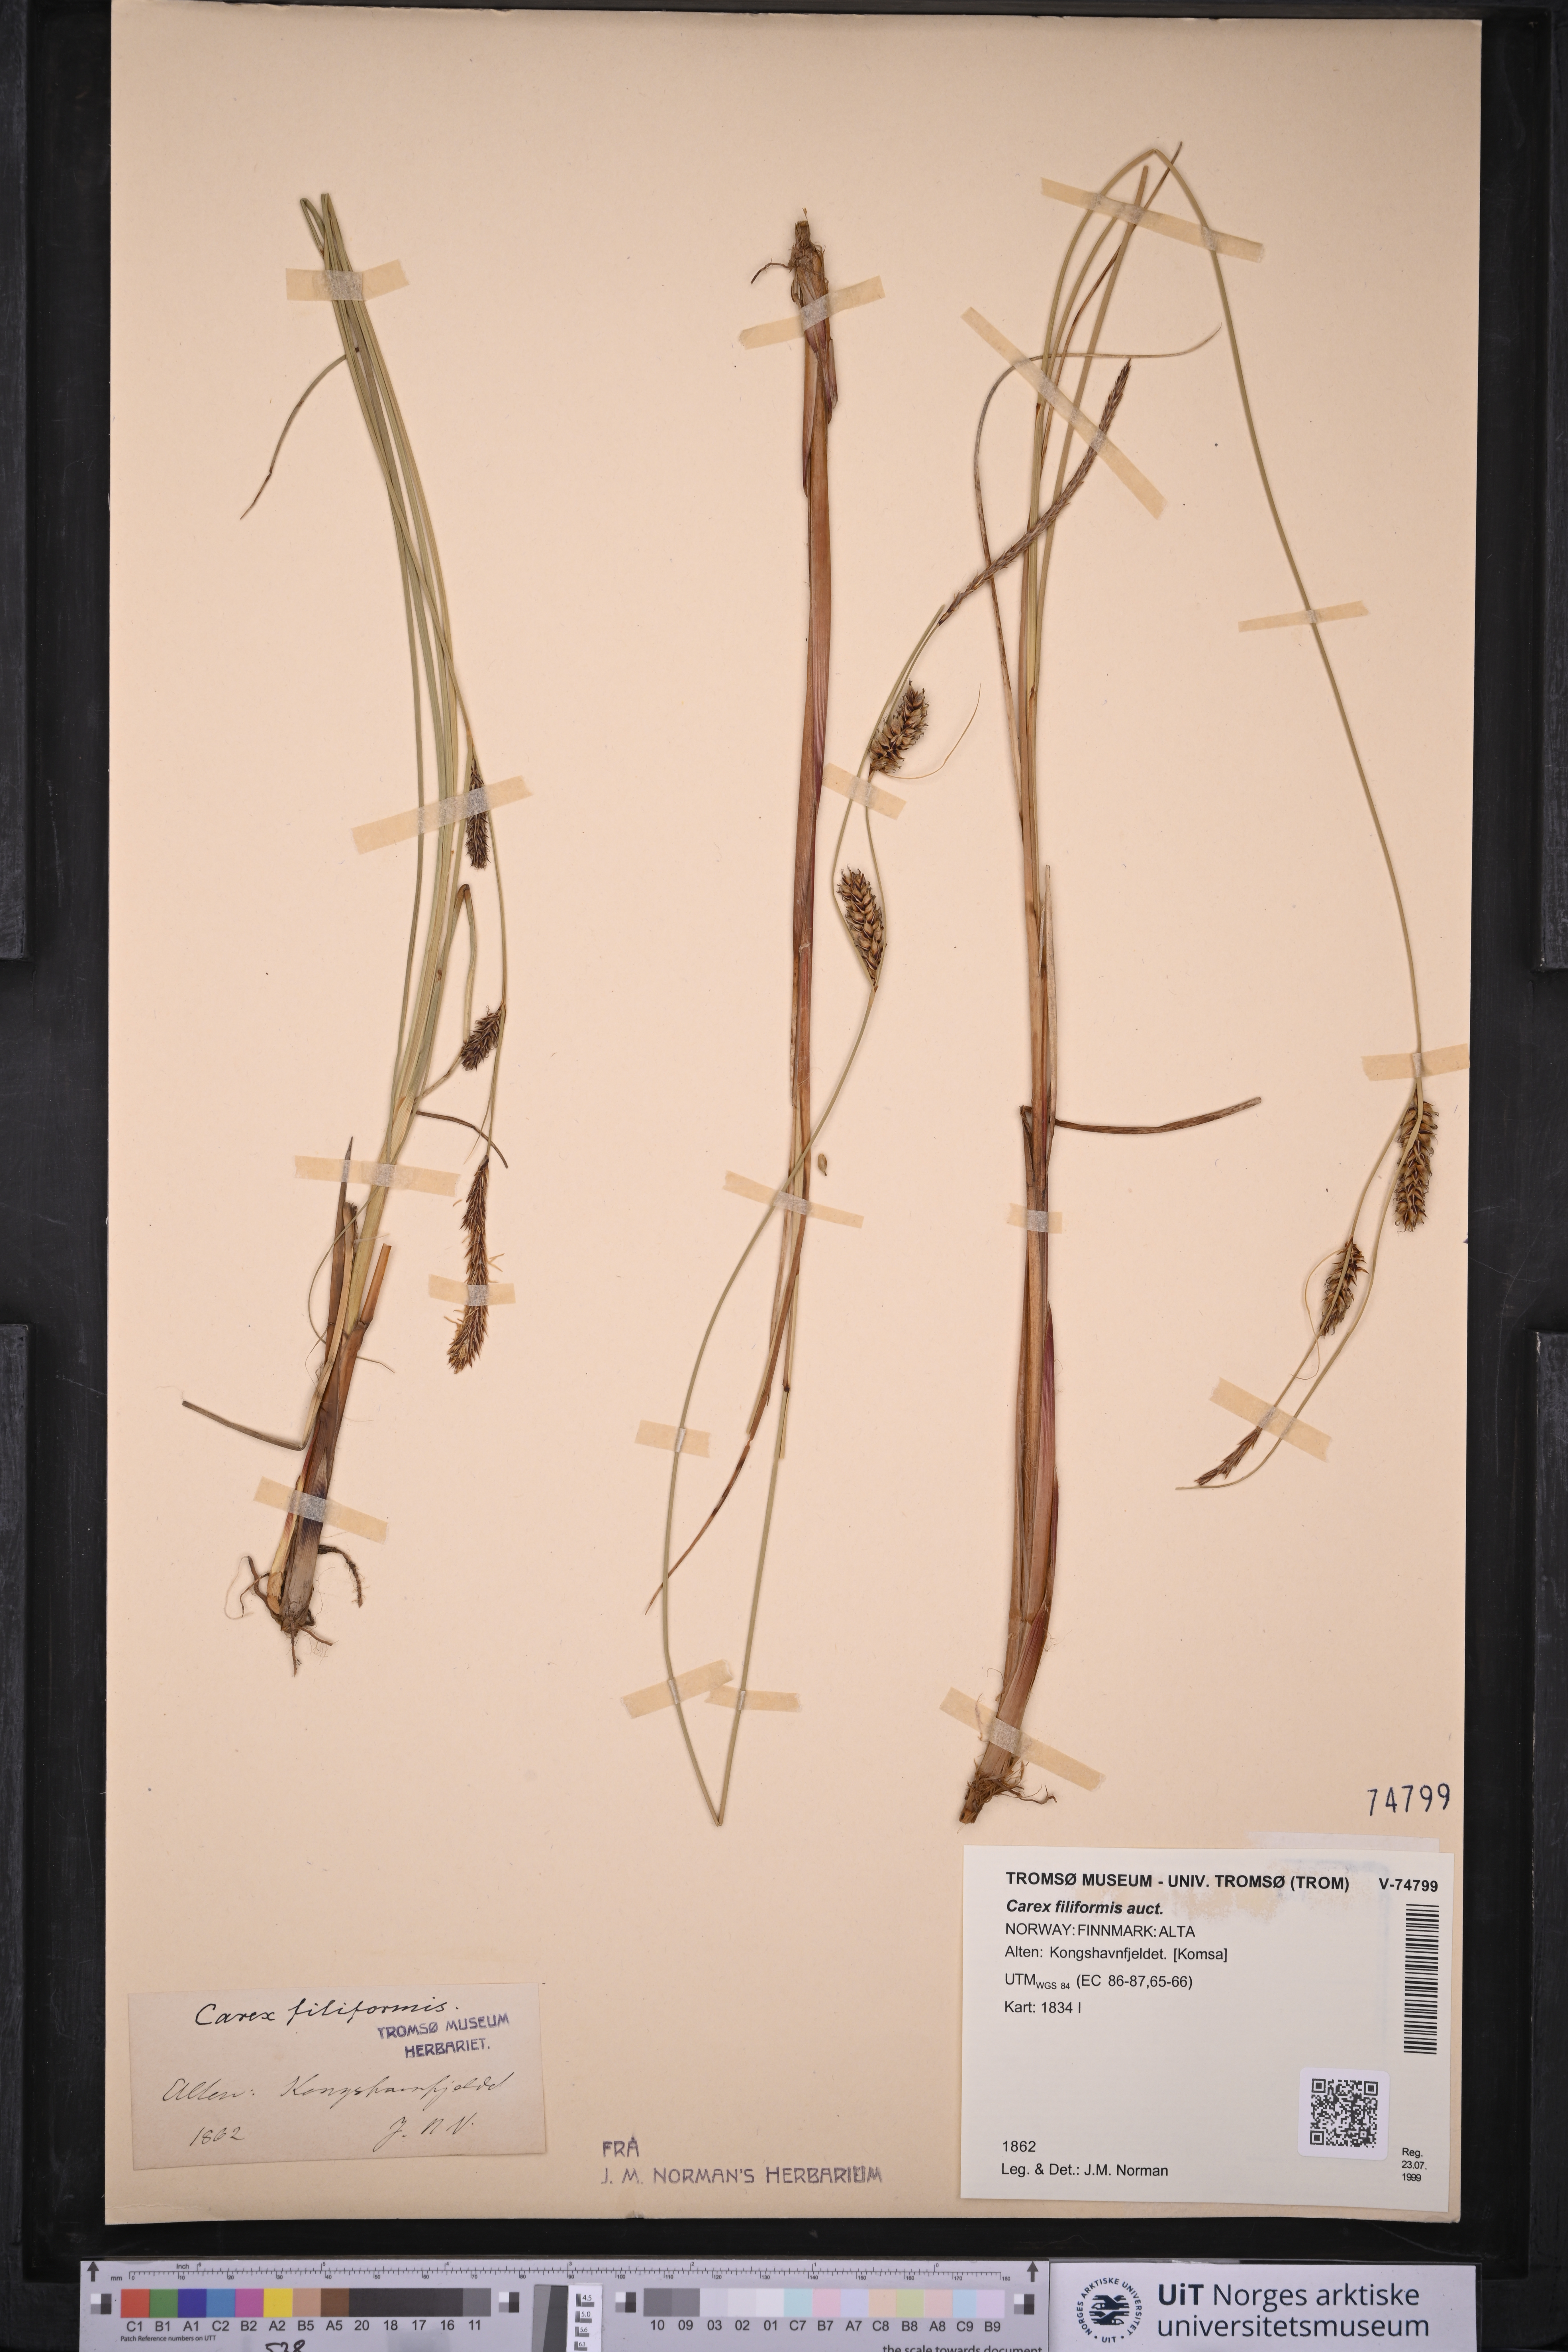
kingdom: Plantae
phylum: Tracheophyta
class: Liliopsida
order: Poales
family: Cyperaceae
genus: Carex
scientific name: Carex montana
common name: Soft-leaved sedge
